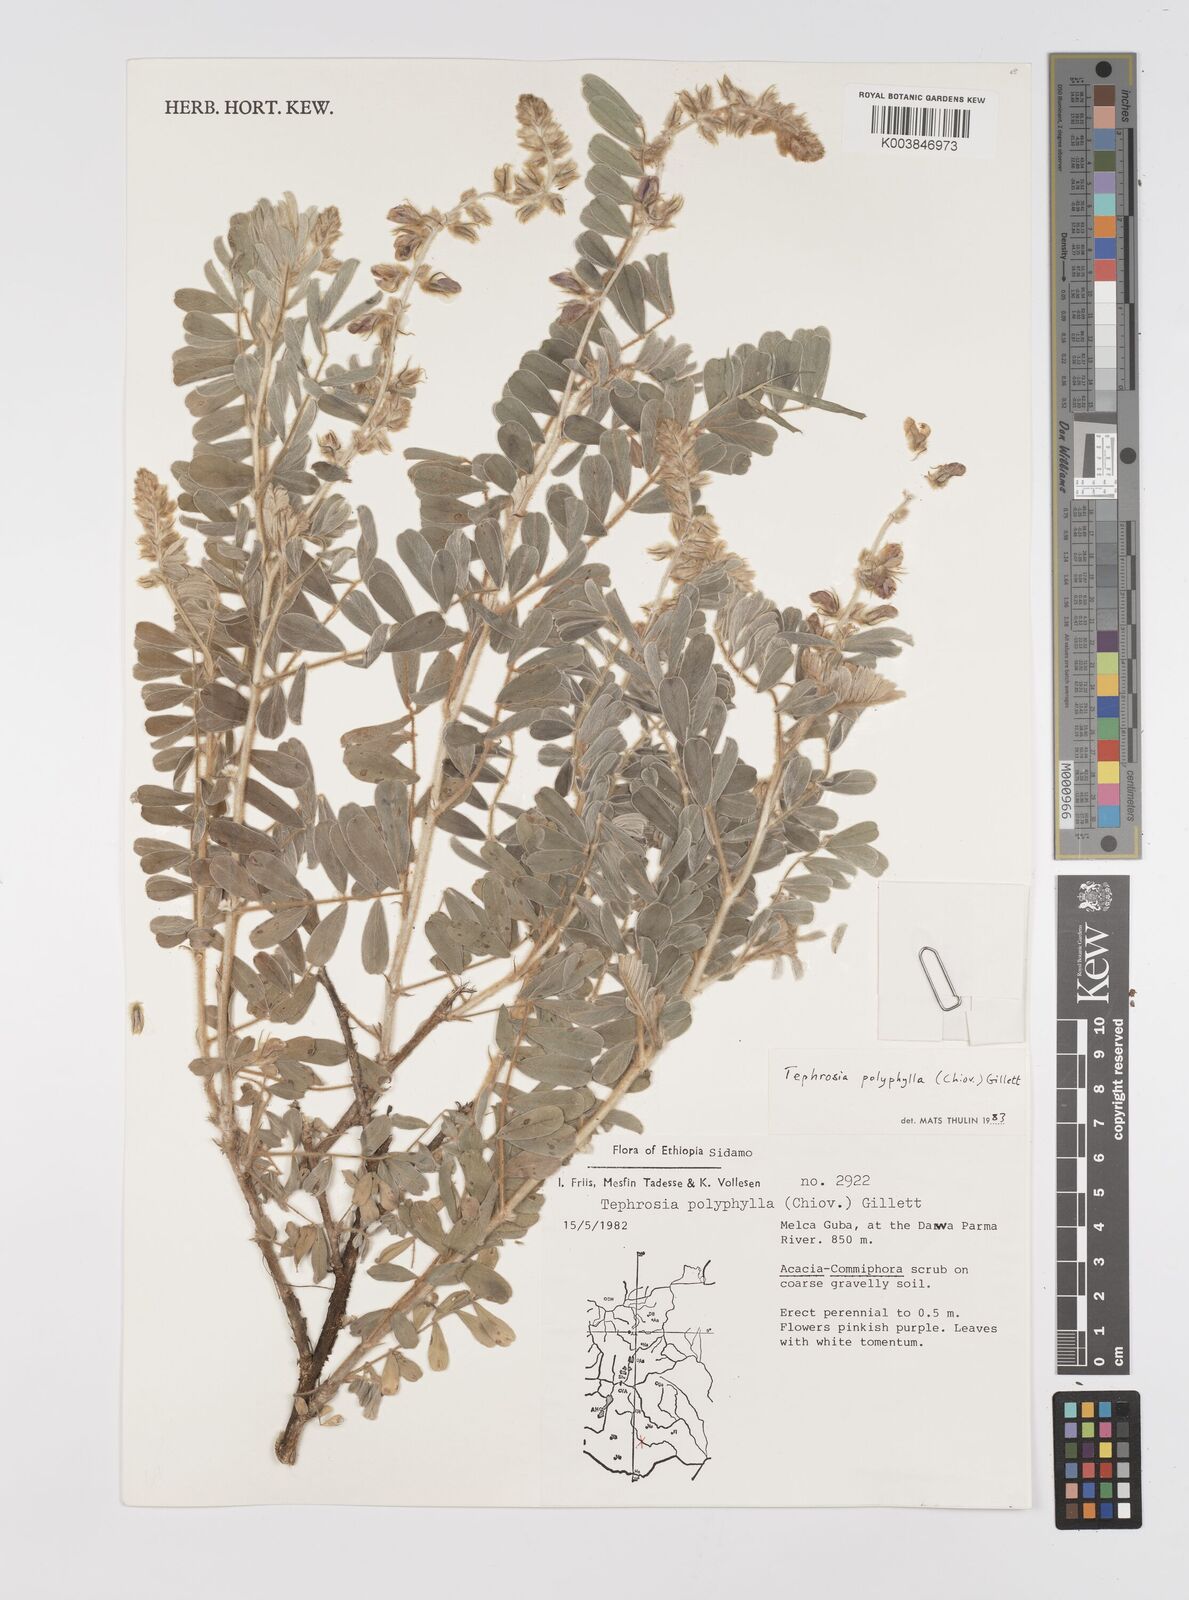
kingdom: Plantae
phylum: Tracheophyta
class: Magnoliopsida
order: Fabales
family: Fabaceae
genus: Tephrosia
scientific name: Tephrosia polyphylla
